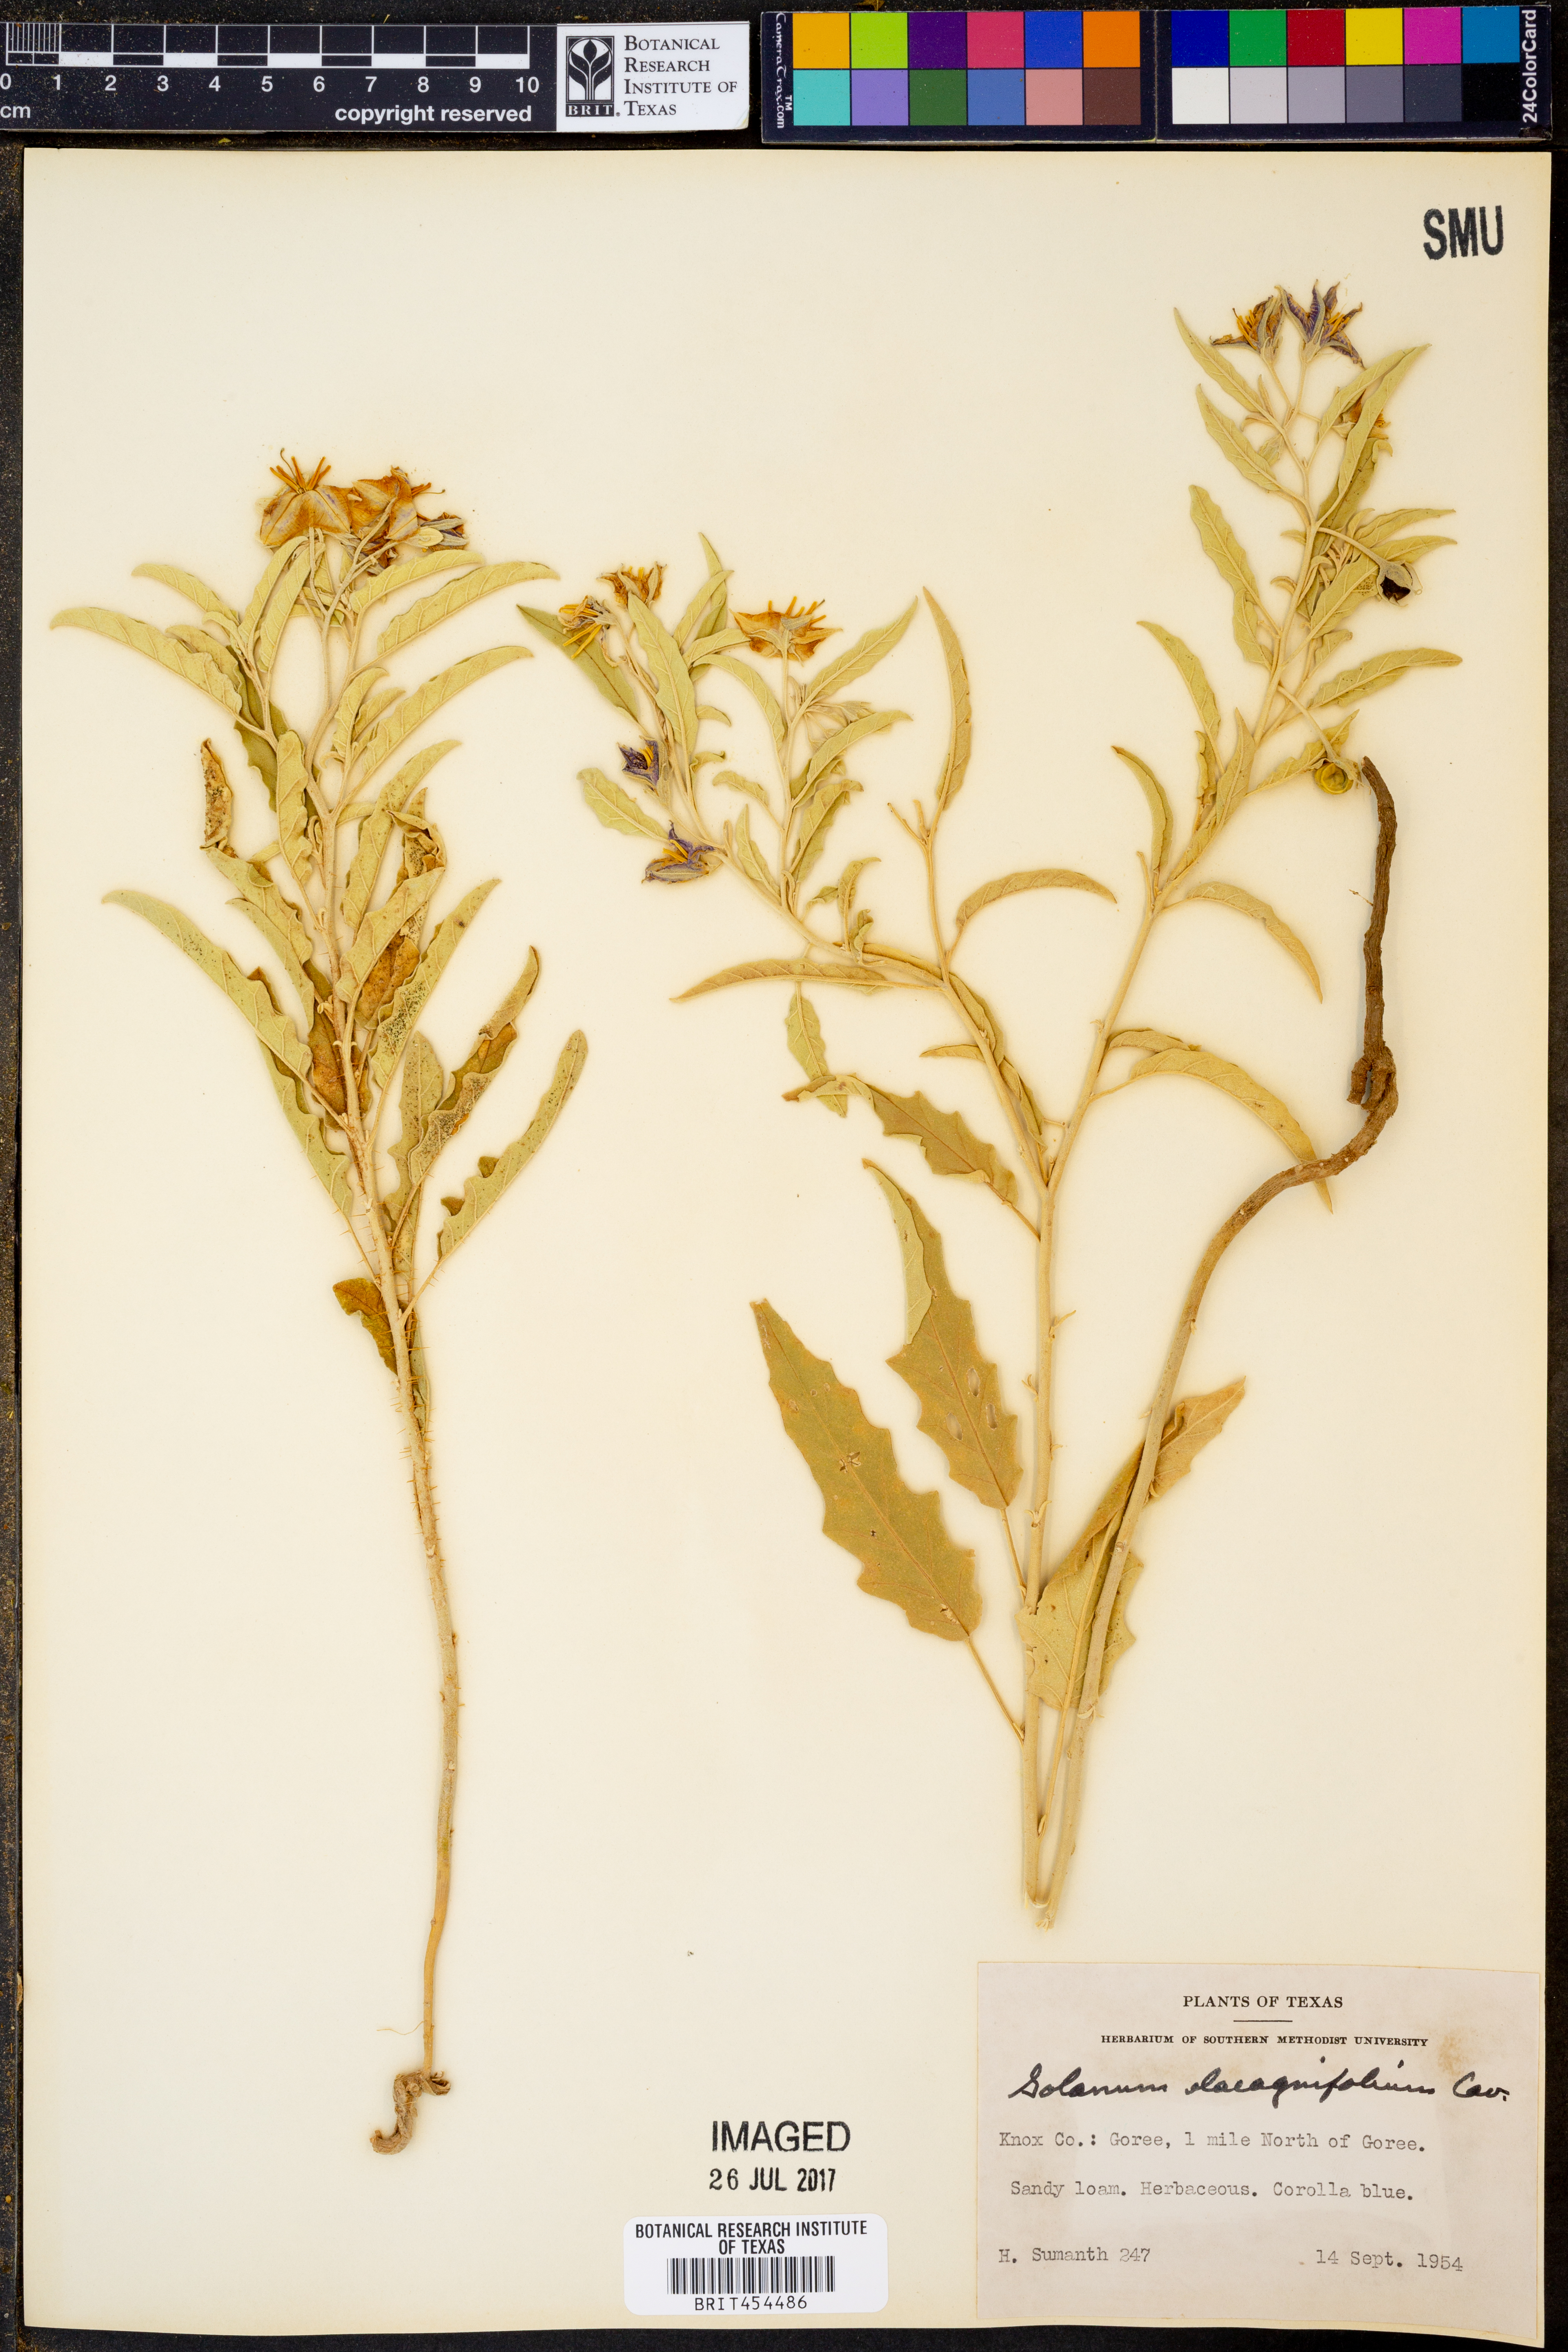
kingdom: Plantae
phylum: Tracheophyta
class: Magnoliopsida
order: Solanales
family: Solanaceae
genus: Solanum
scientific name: Solanum elaeagnifolium
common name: Silverleaf nightshade
